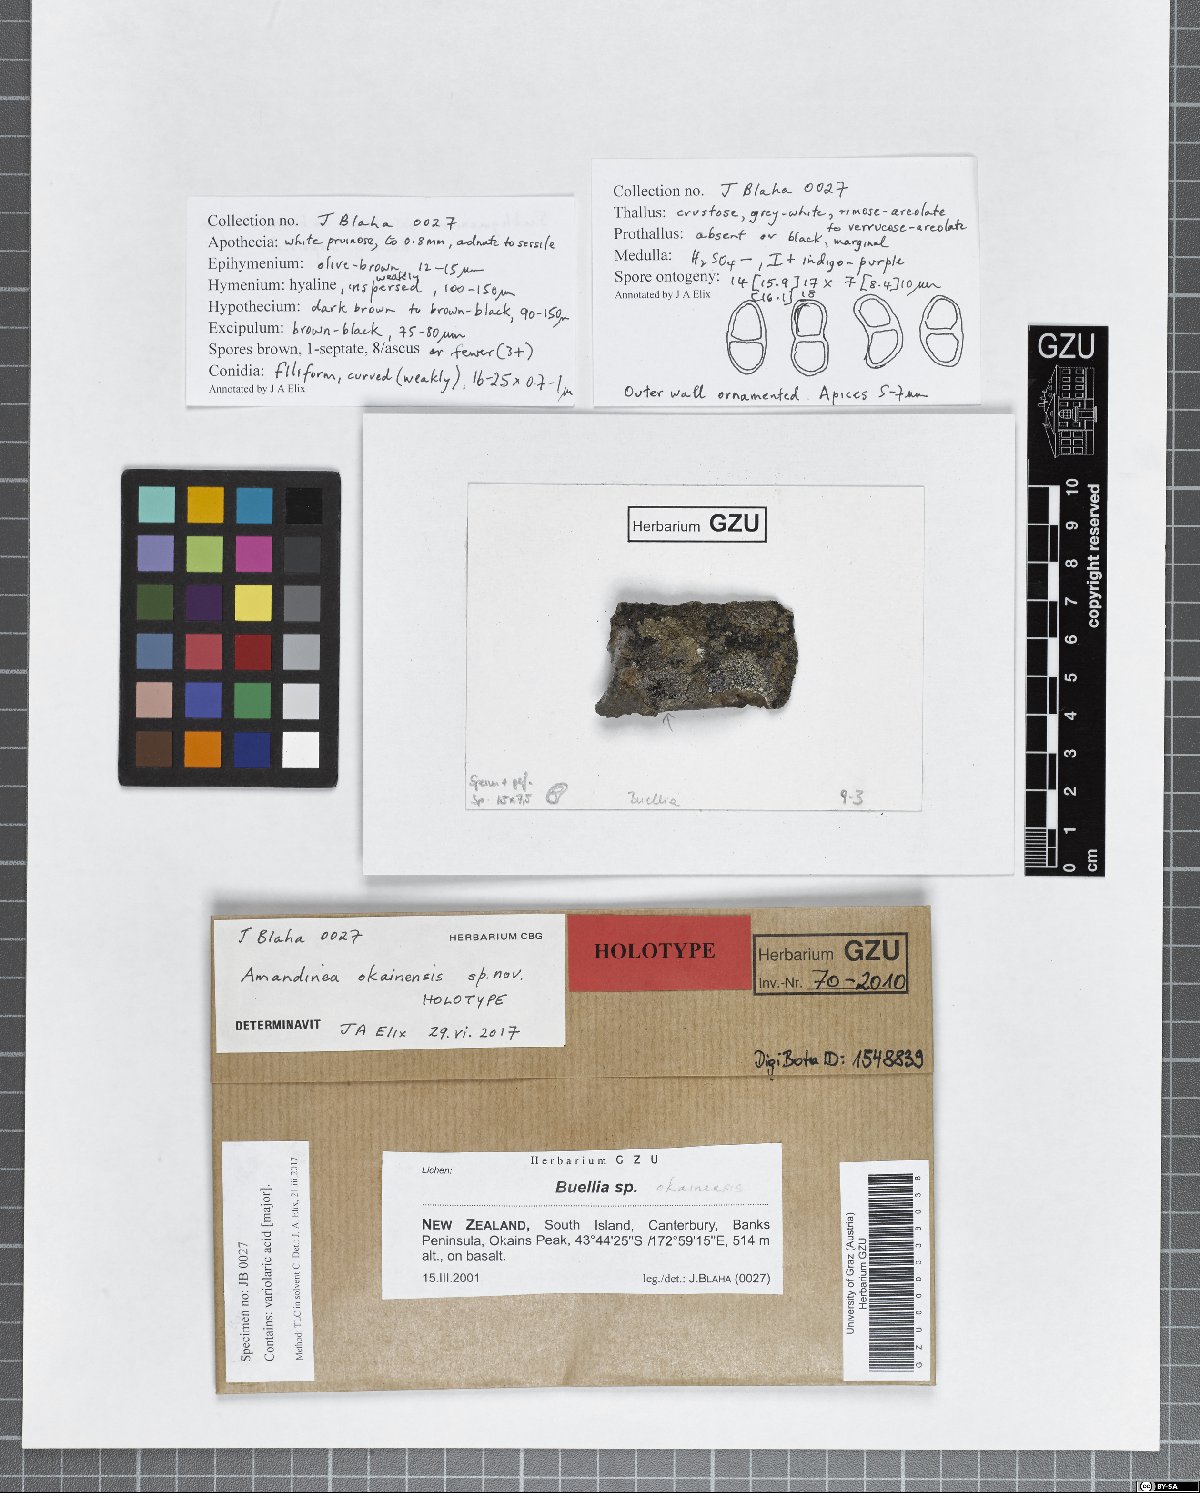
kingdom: Fungi
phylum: Ascomycota
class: Lecanoromycetes
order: Caliciales
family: Caliciaceae
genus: Amandinea
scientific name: Amandinea okainensis
